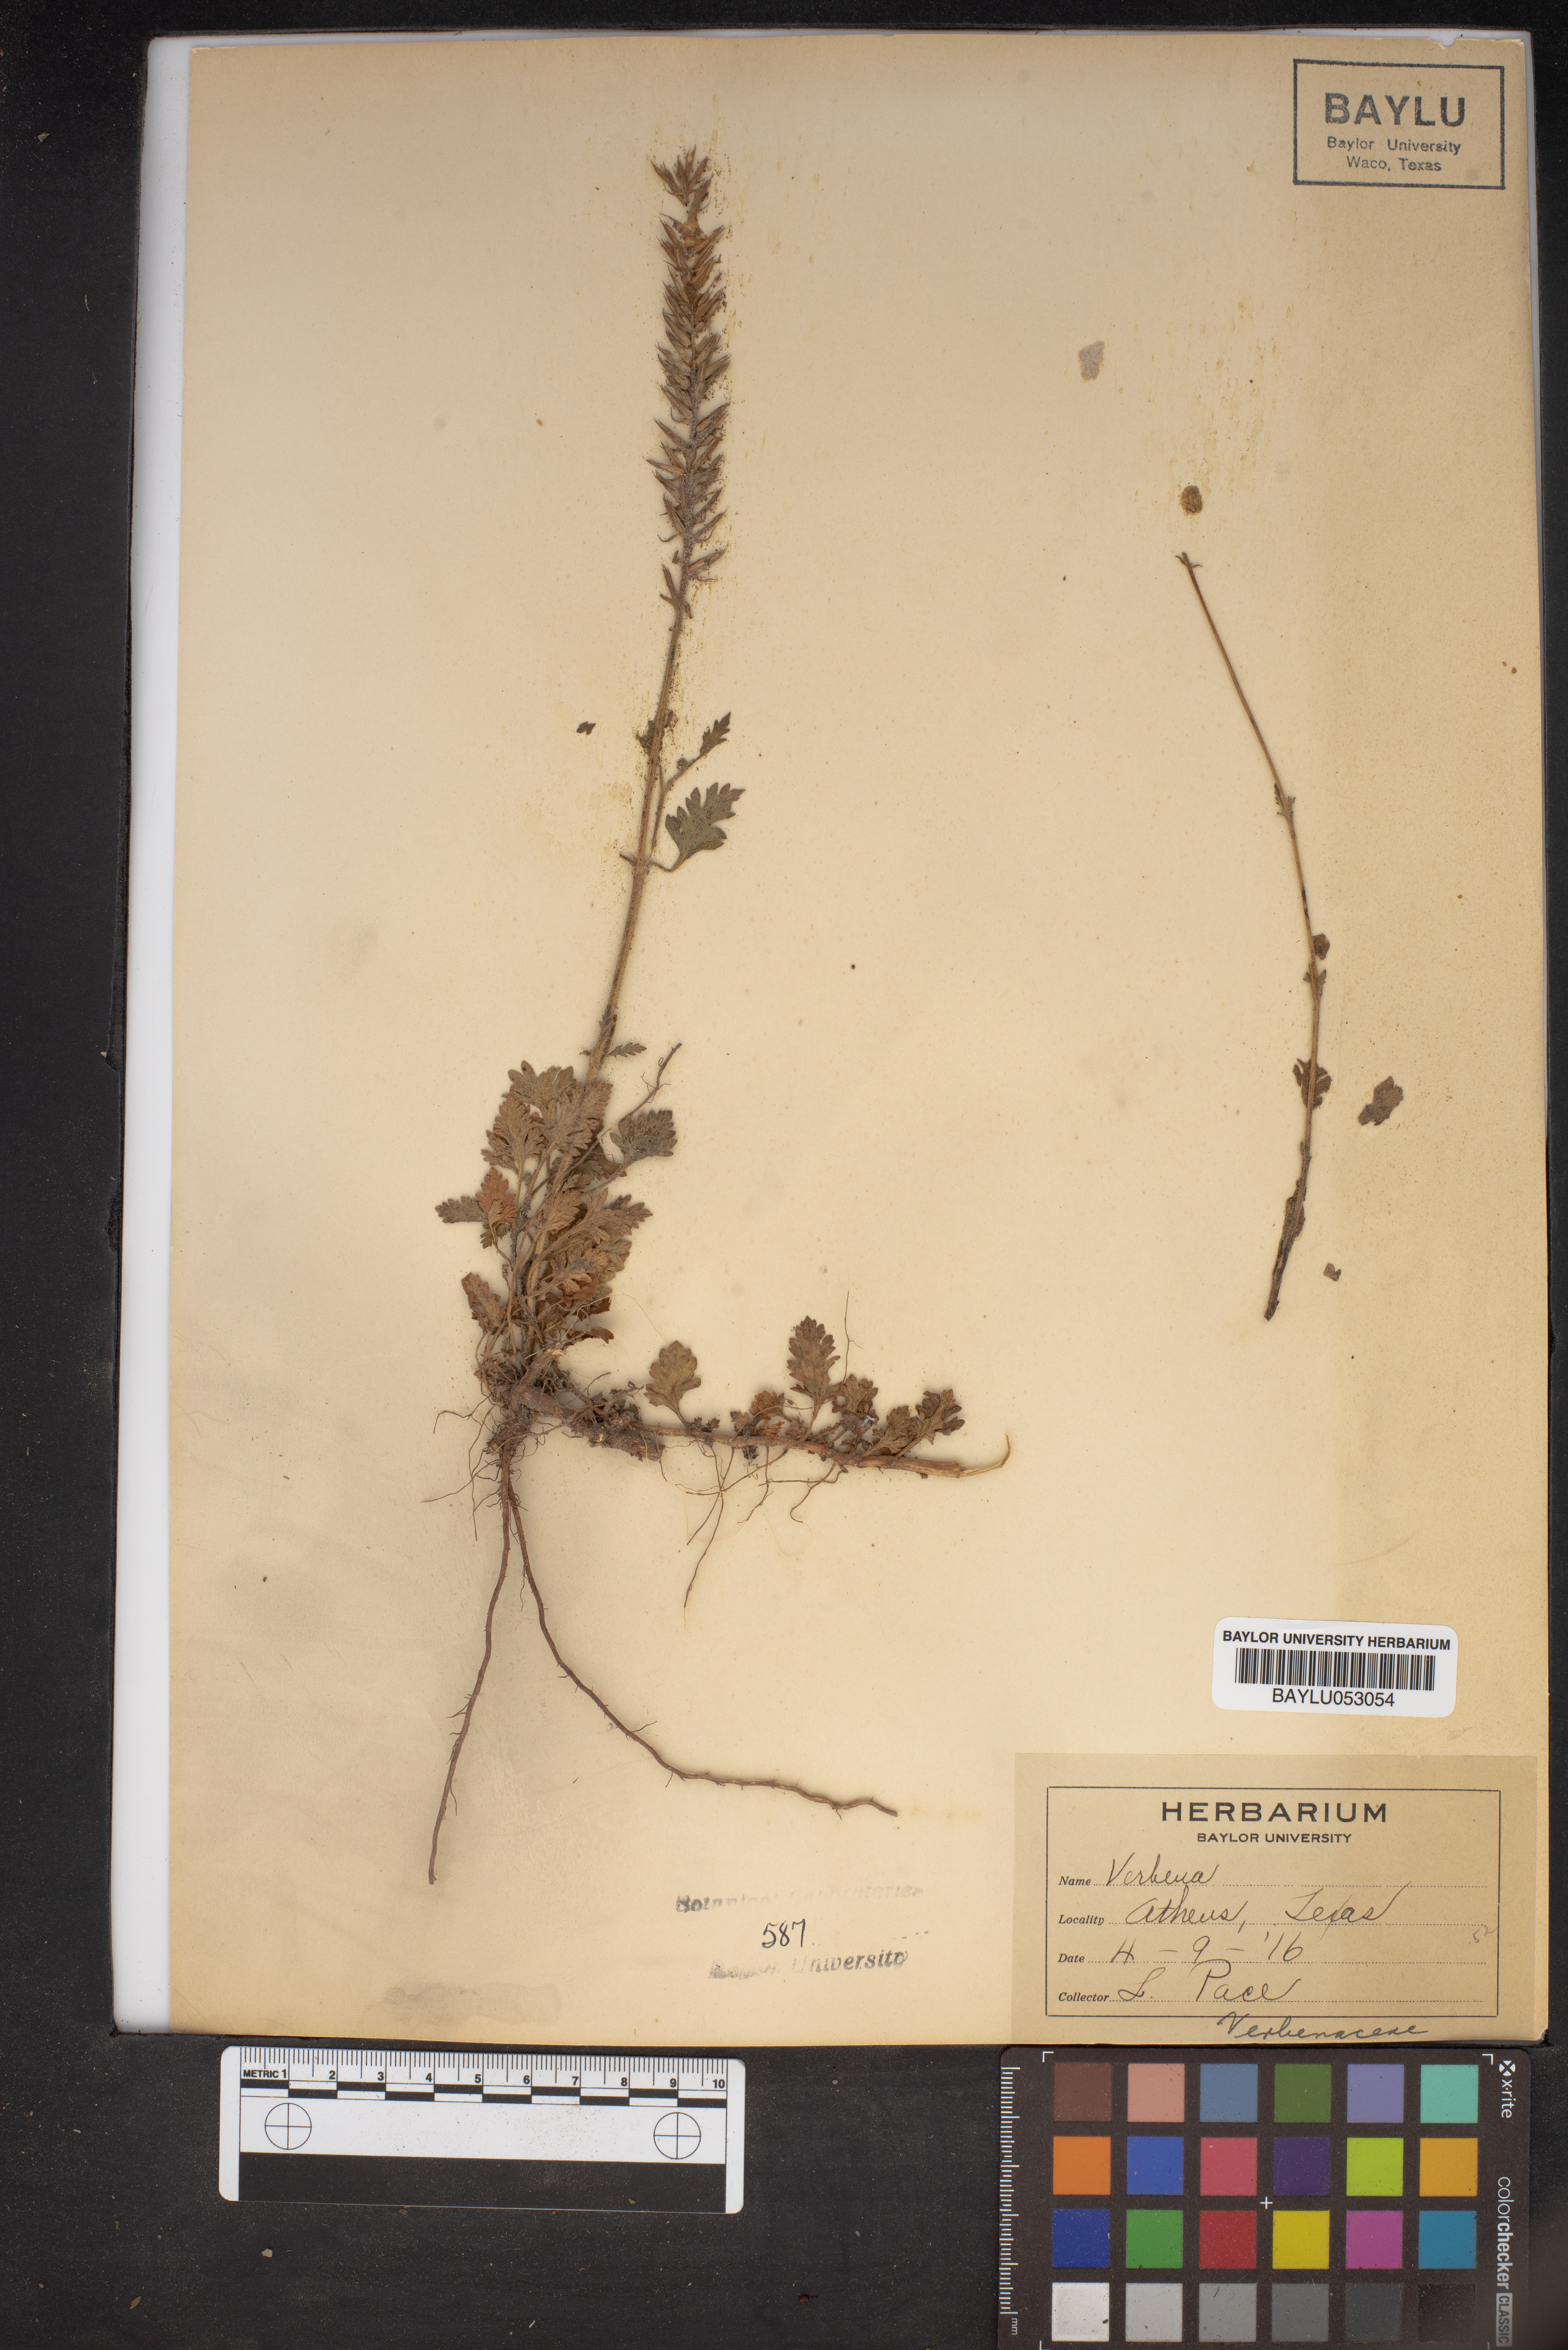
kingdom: Plantae
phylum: Tracheophyta
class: Magnoliopsida
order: Lamiales
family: Verbenaceae
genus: Verbena
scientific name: Verbena
